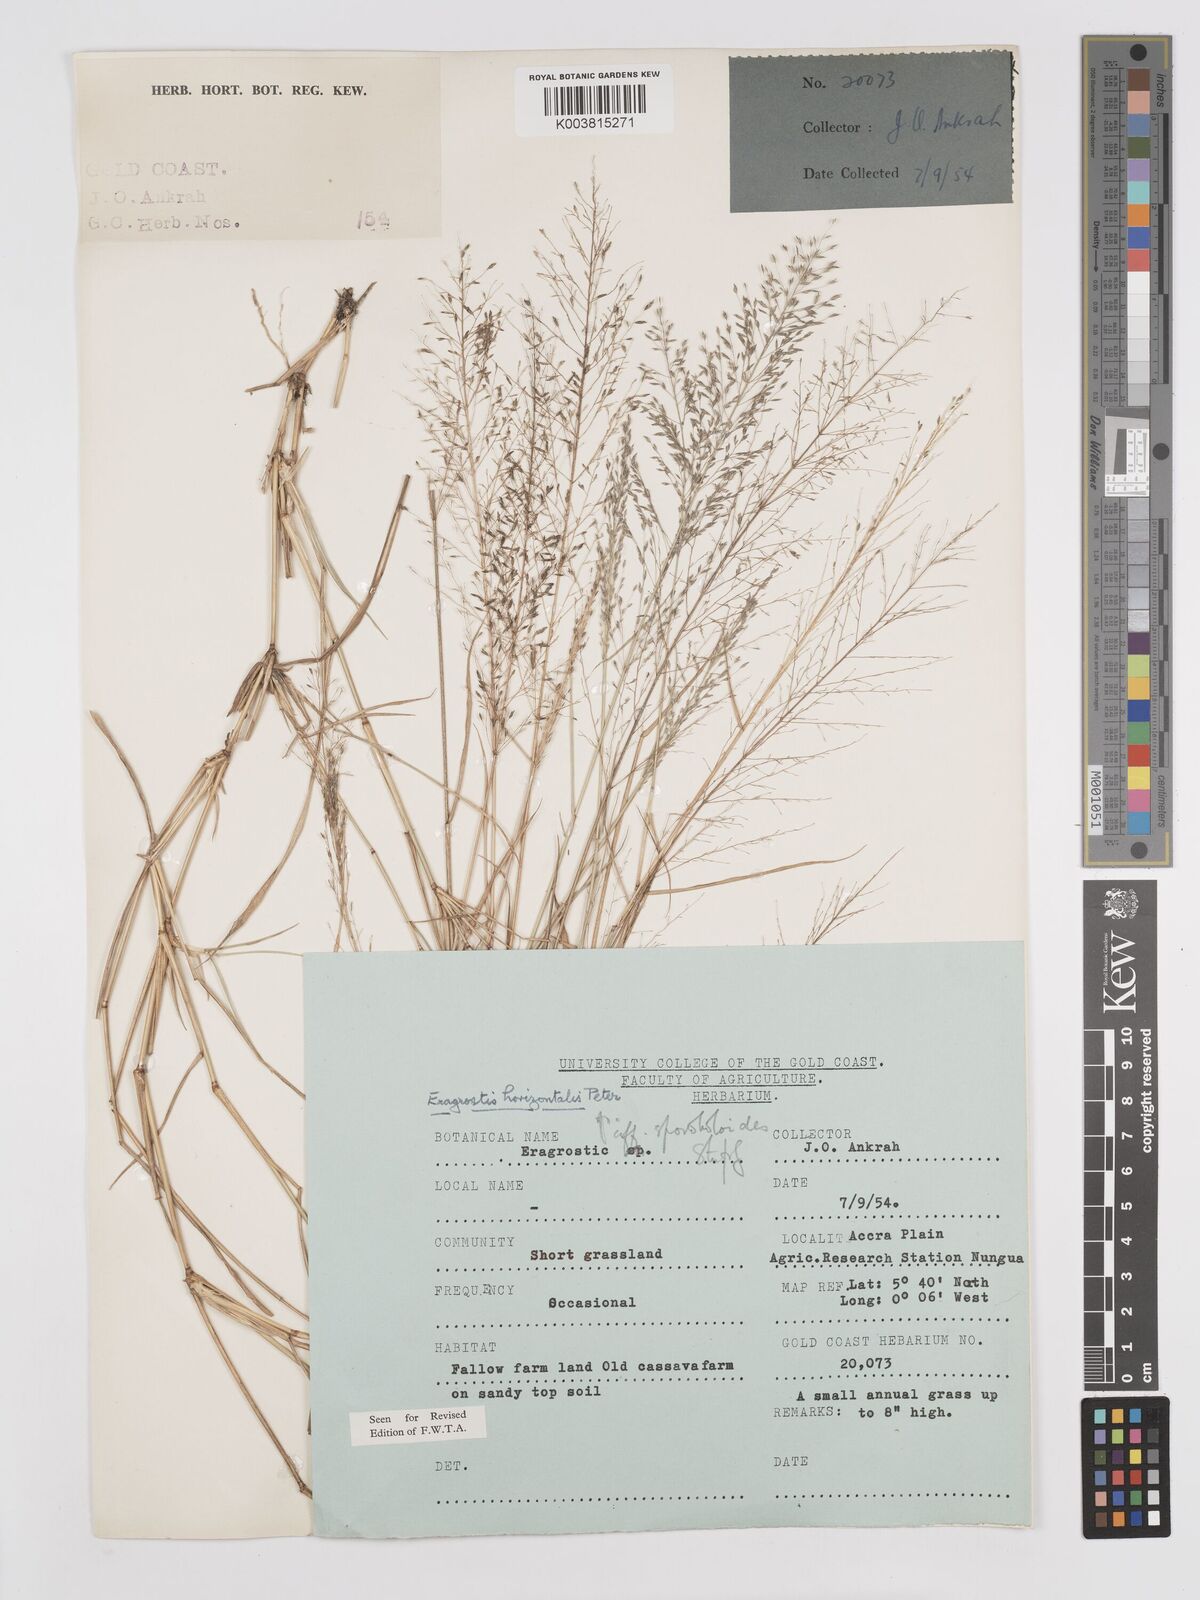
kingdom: Plantae
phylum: Tracheophyta
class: Liliopsida
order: Poales
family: Poaceae
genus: Eragrostis
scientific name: Eragrostis cylindriflora
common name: Cylinderflower lovegrass
